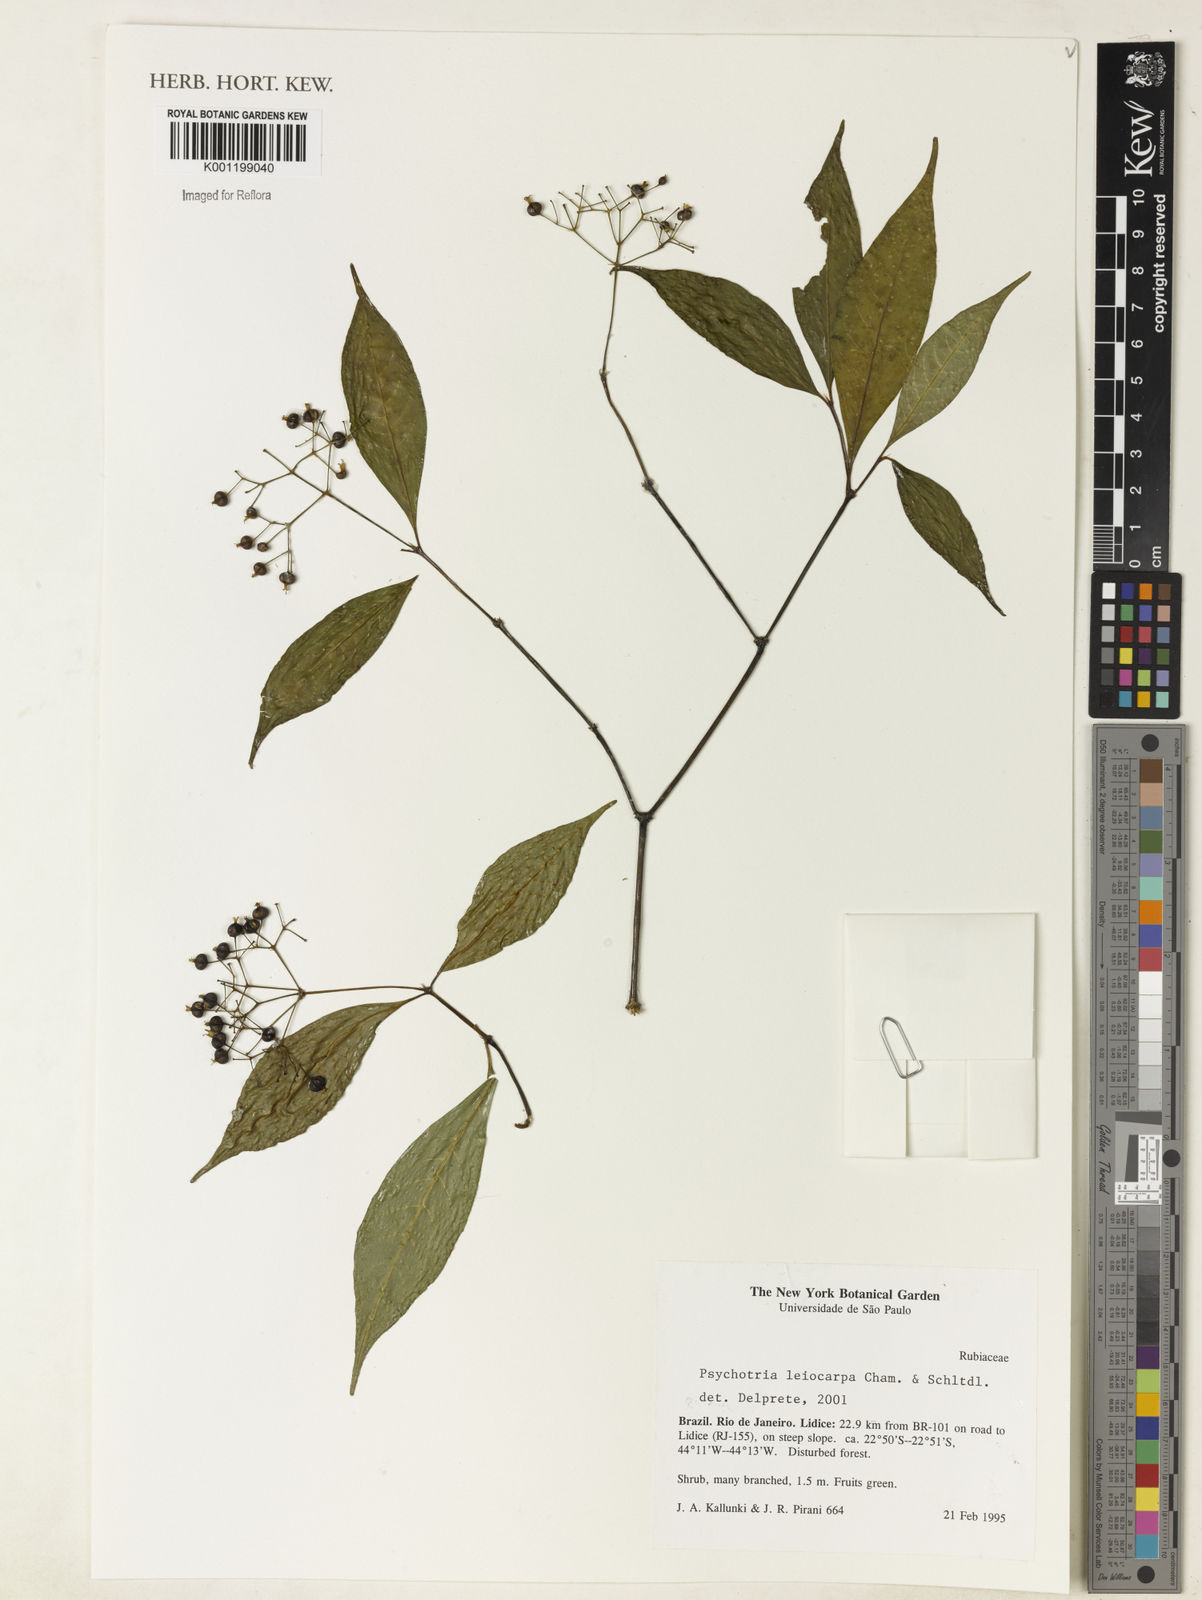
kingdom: Plantae
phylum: Tracheophyta
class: Magnoliopsida
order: Gentianales
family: Rubiaceae
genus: Psychotria
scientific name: Psychotria leiocarpa
